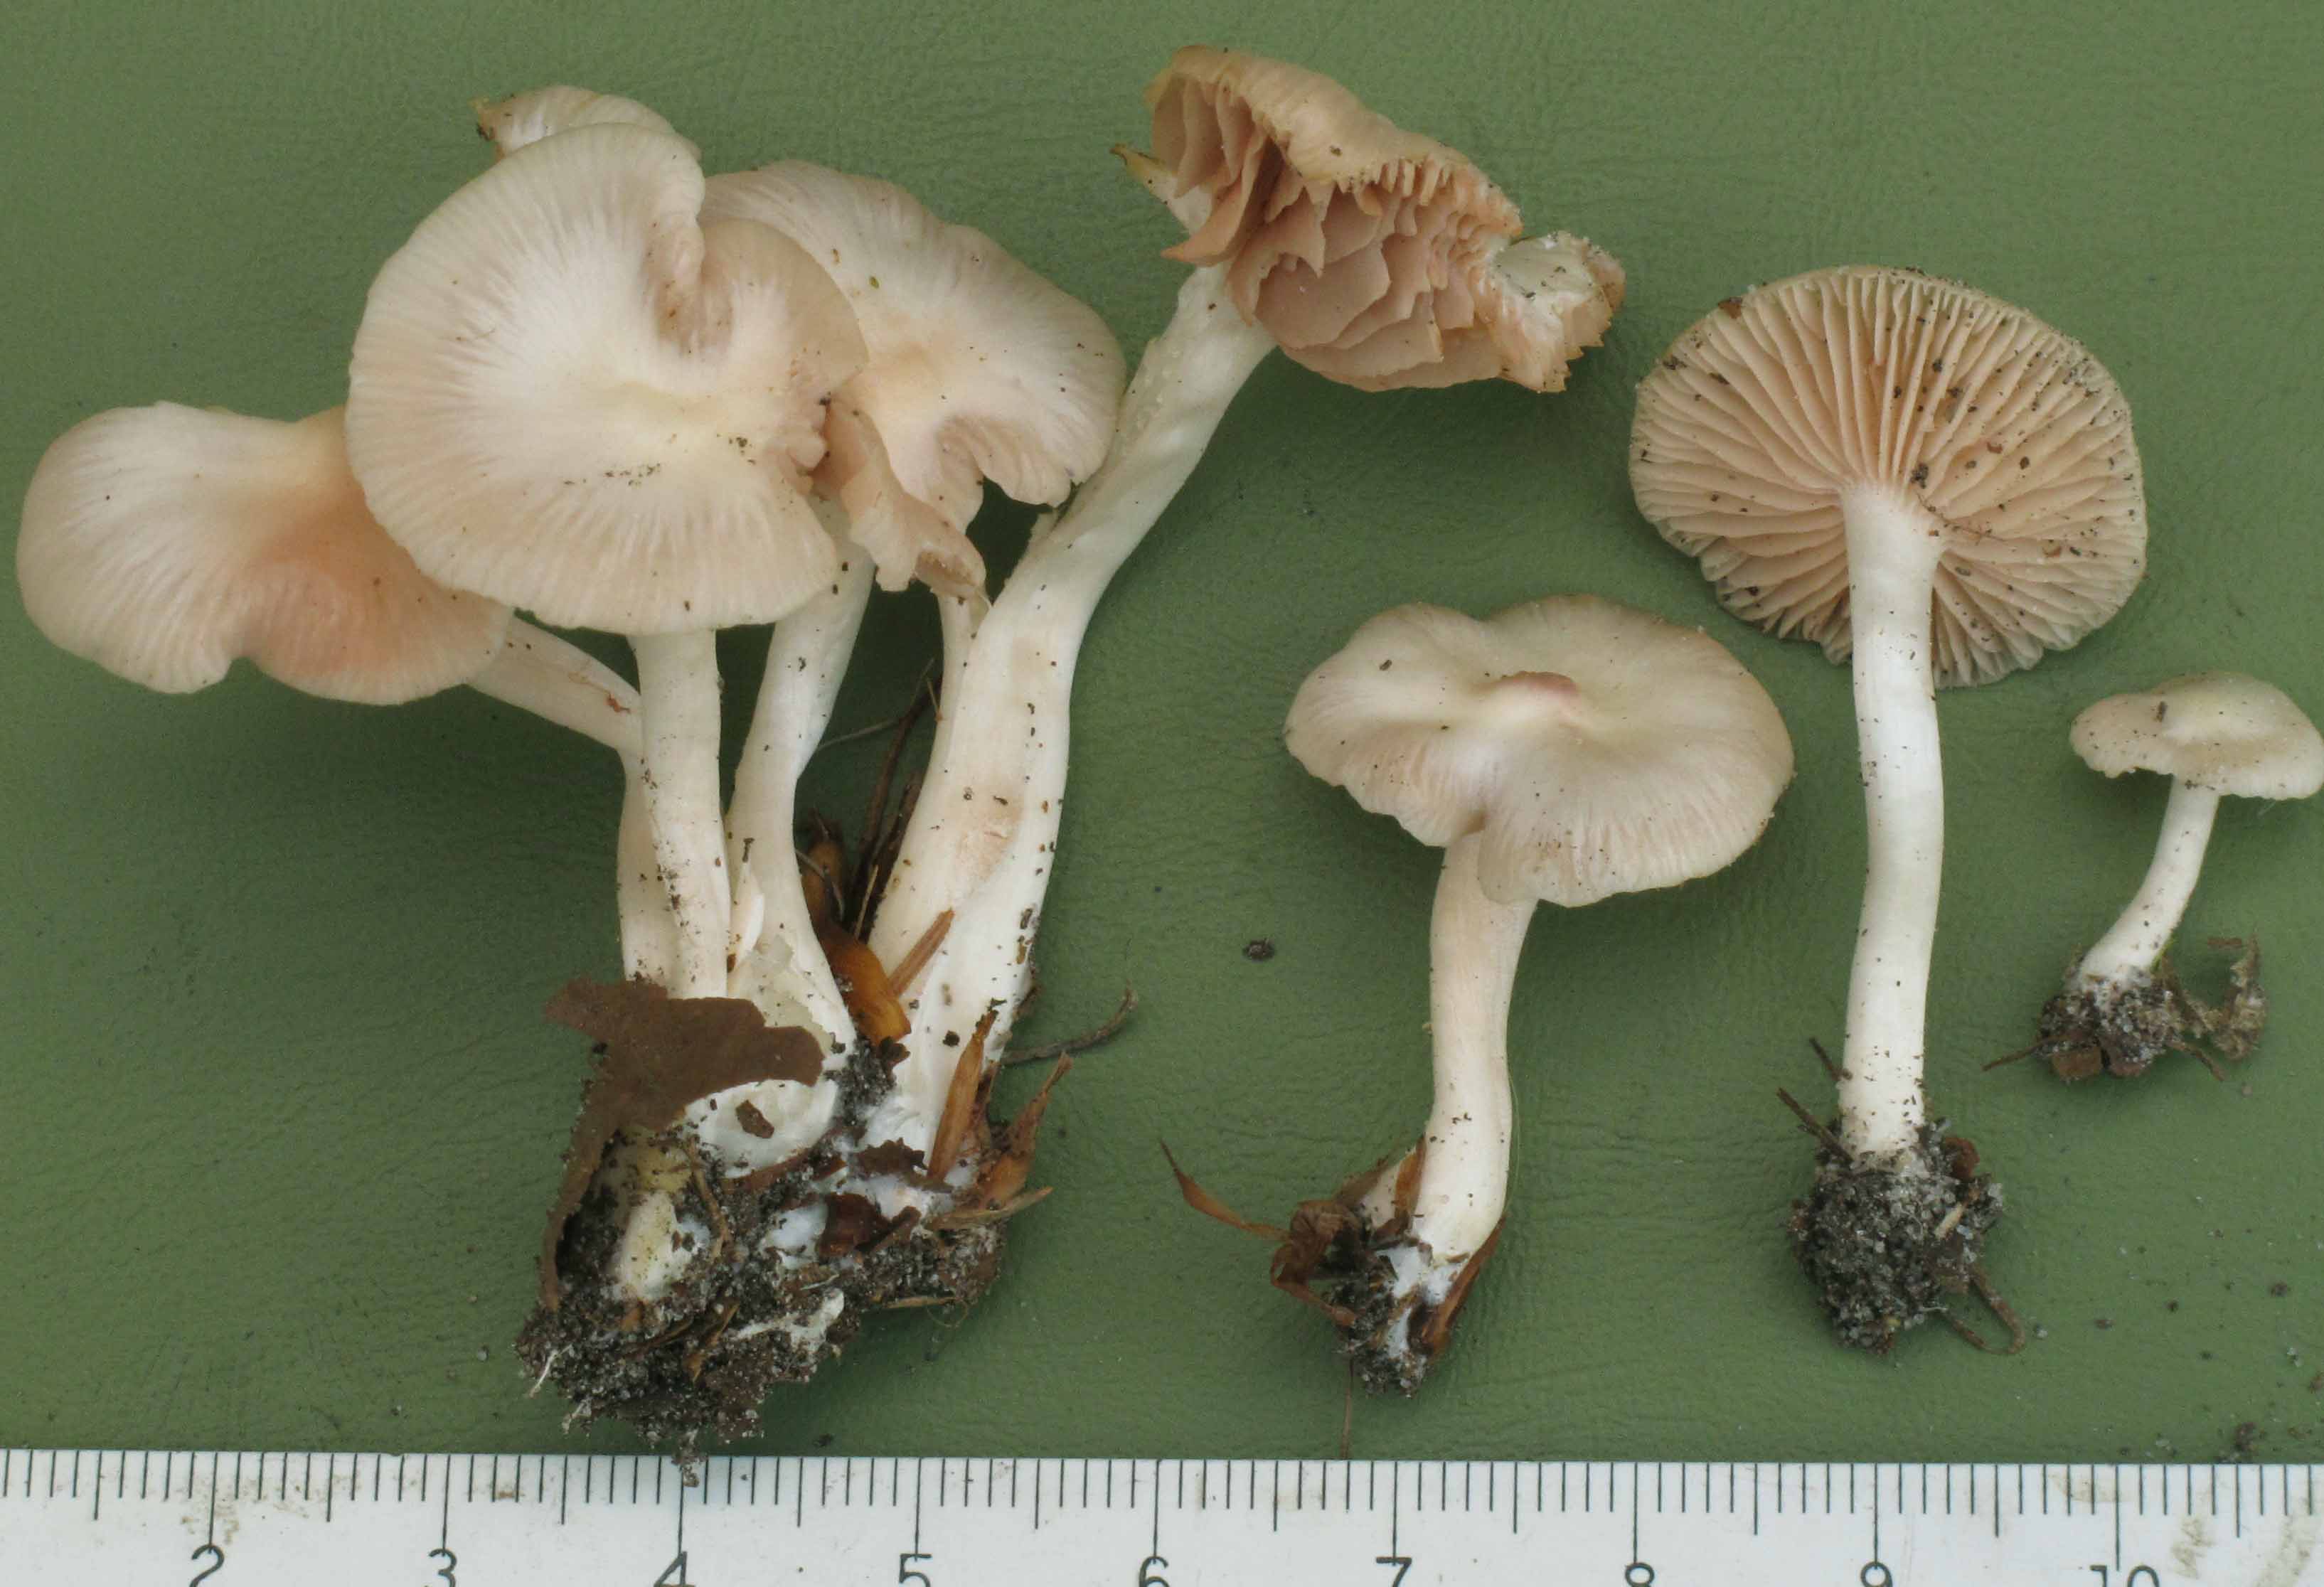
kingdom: Fungi
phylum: Basidiomycota
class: Agaricomycetes
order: Agaricales
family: Entolomataceae
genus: Entoloma
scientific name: Entoloma pseudoexcentricum
